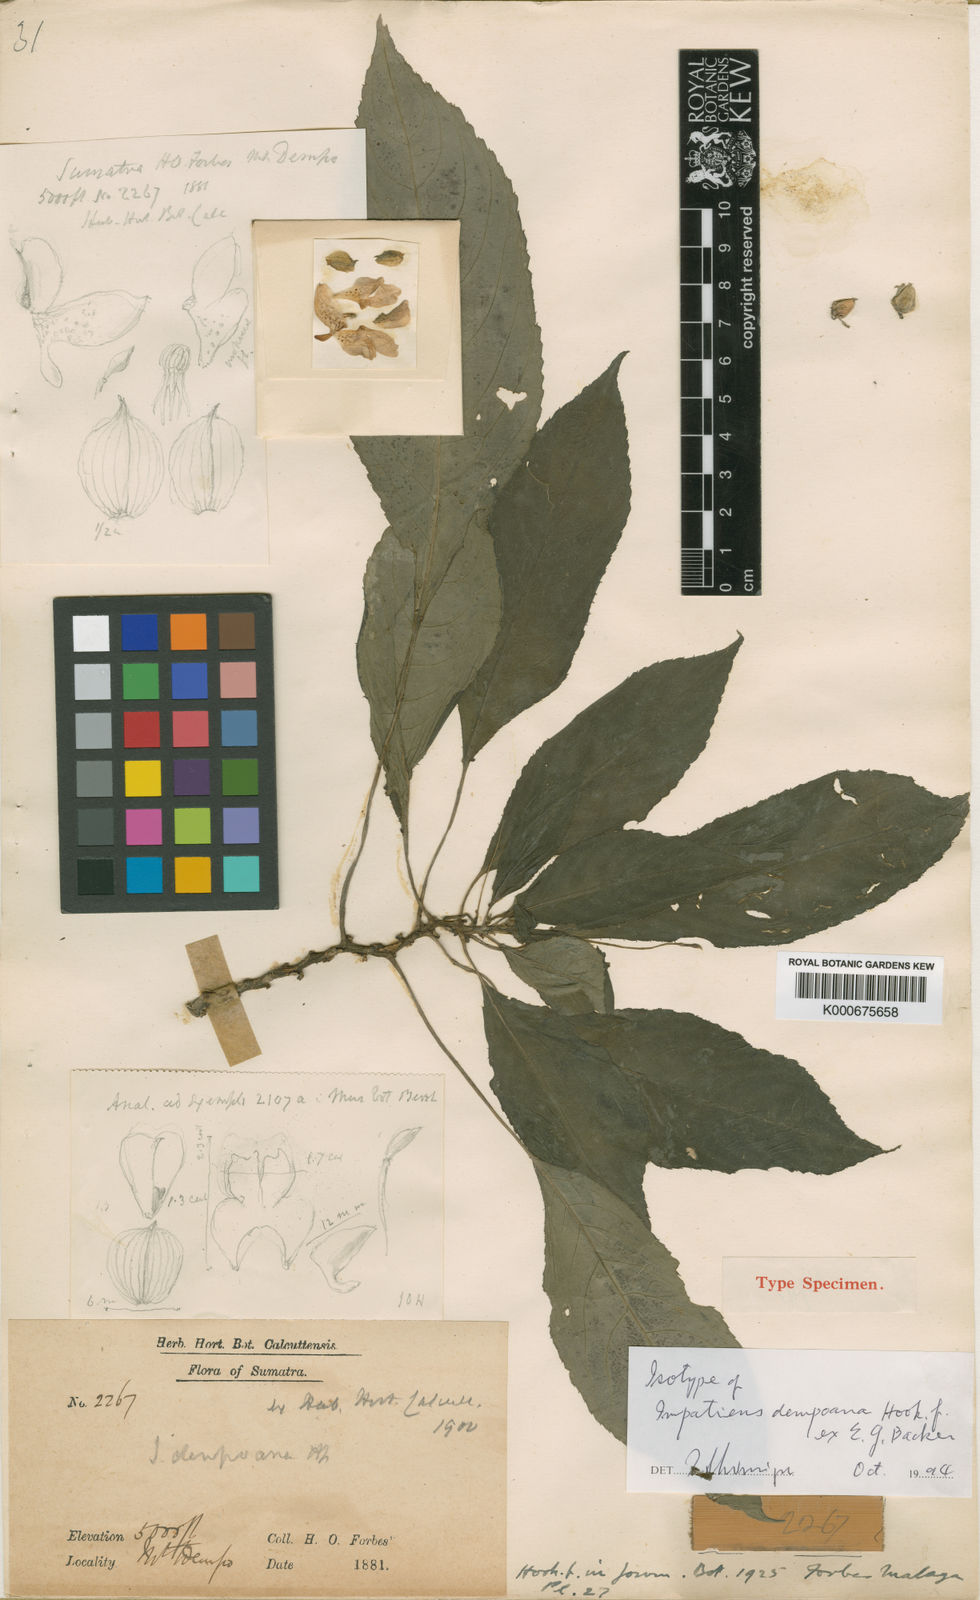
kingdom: Plantae
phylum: Tracheophyta
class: Magnoliopsida
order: Ericales
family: Balsaminaceae
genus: Impatiens
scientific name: Impatiens dempoana
